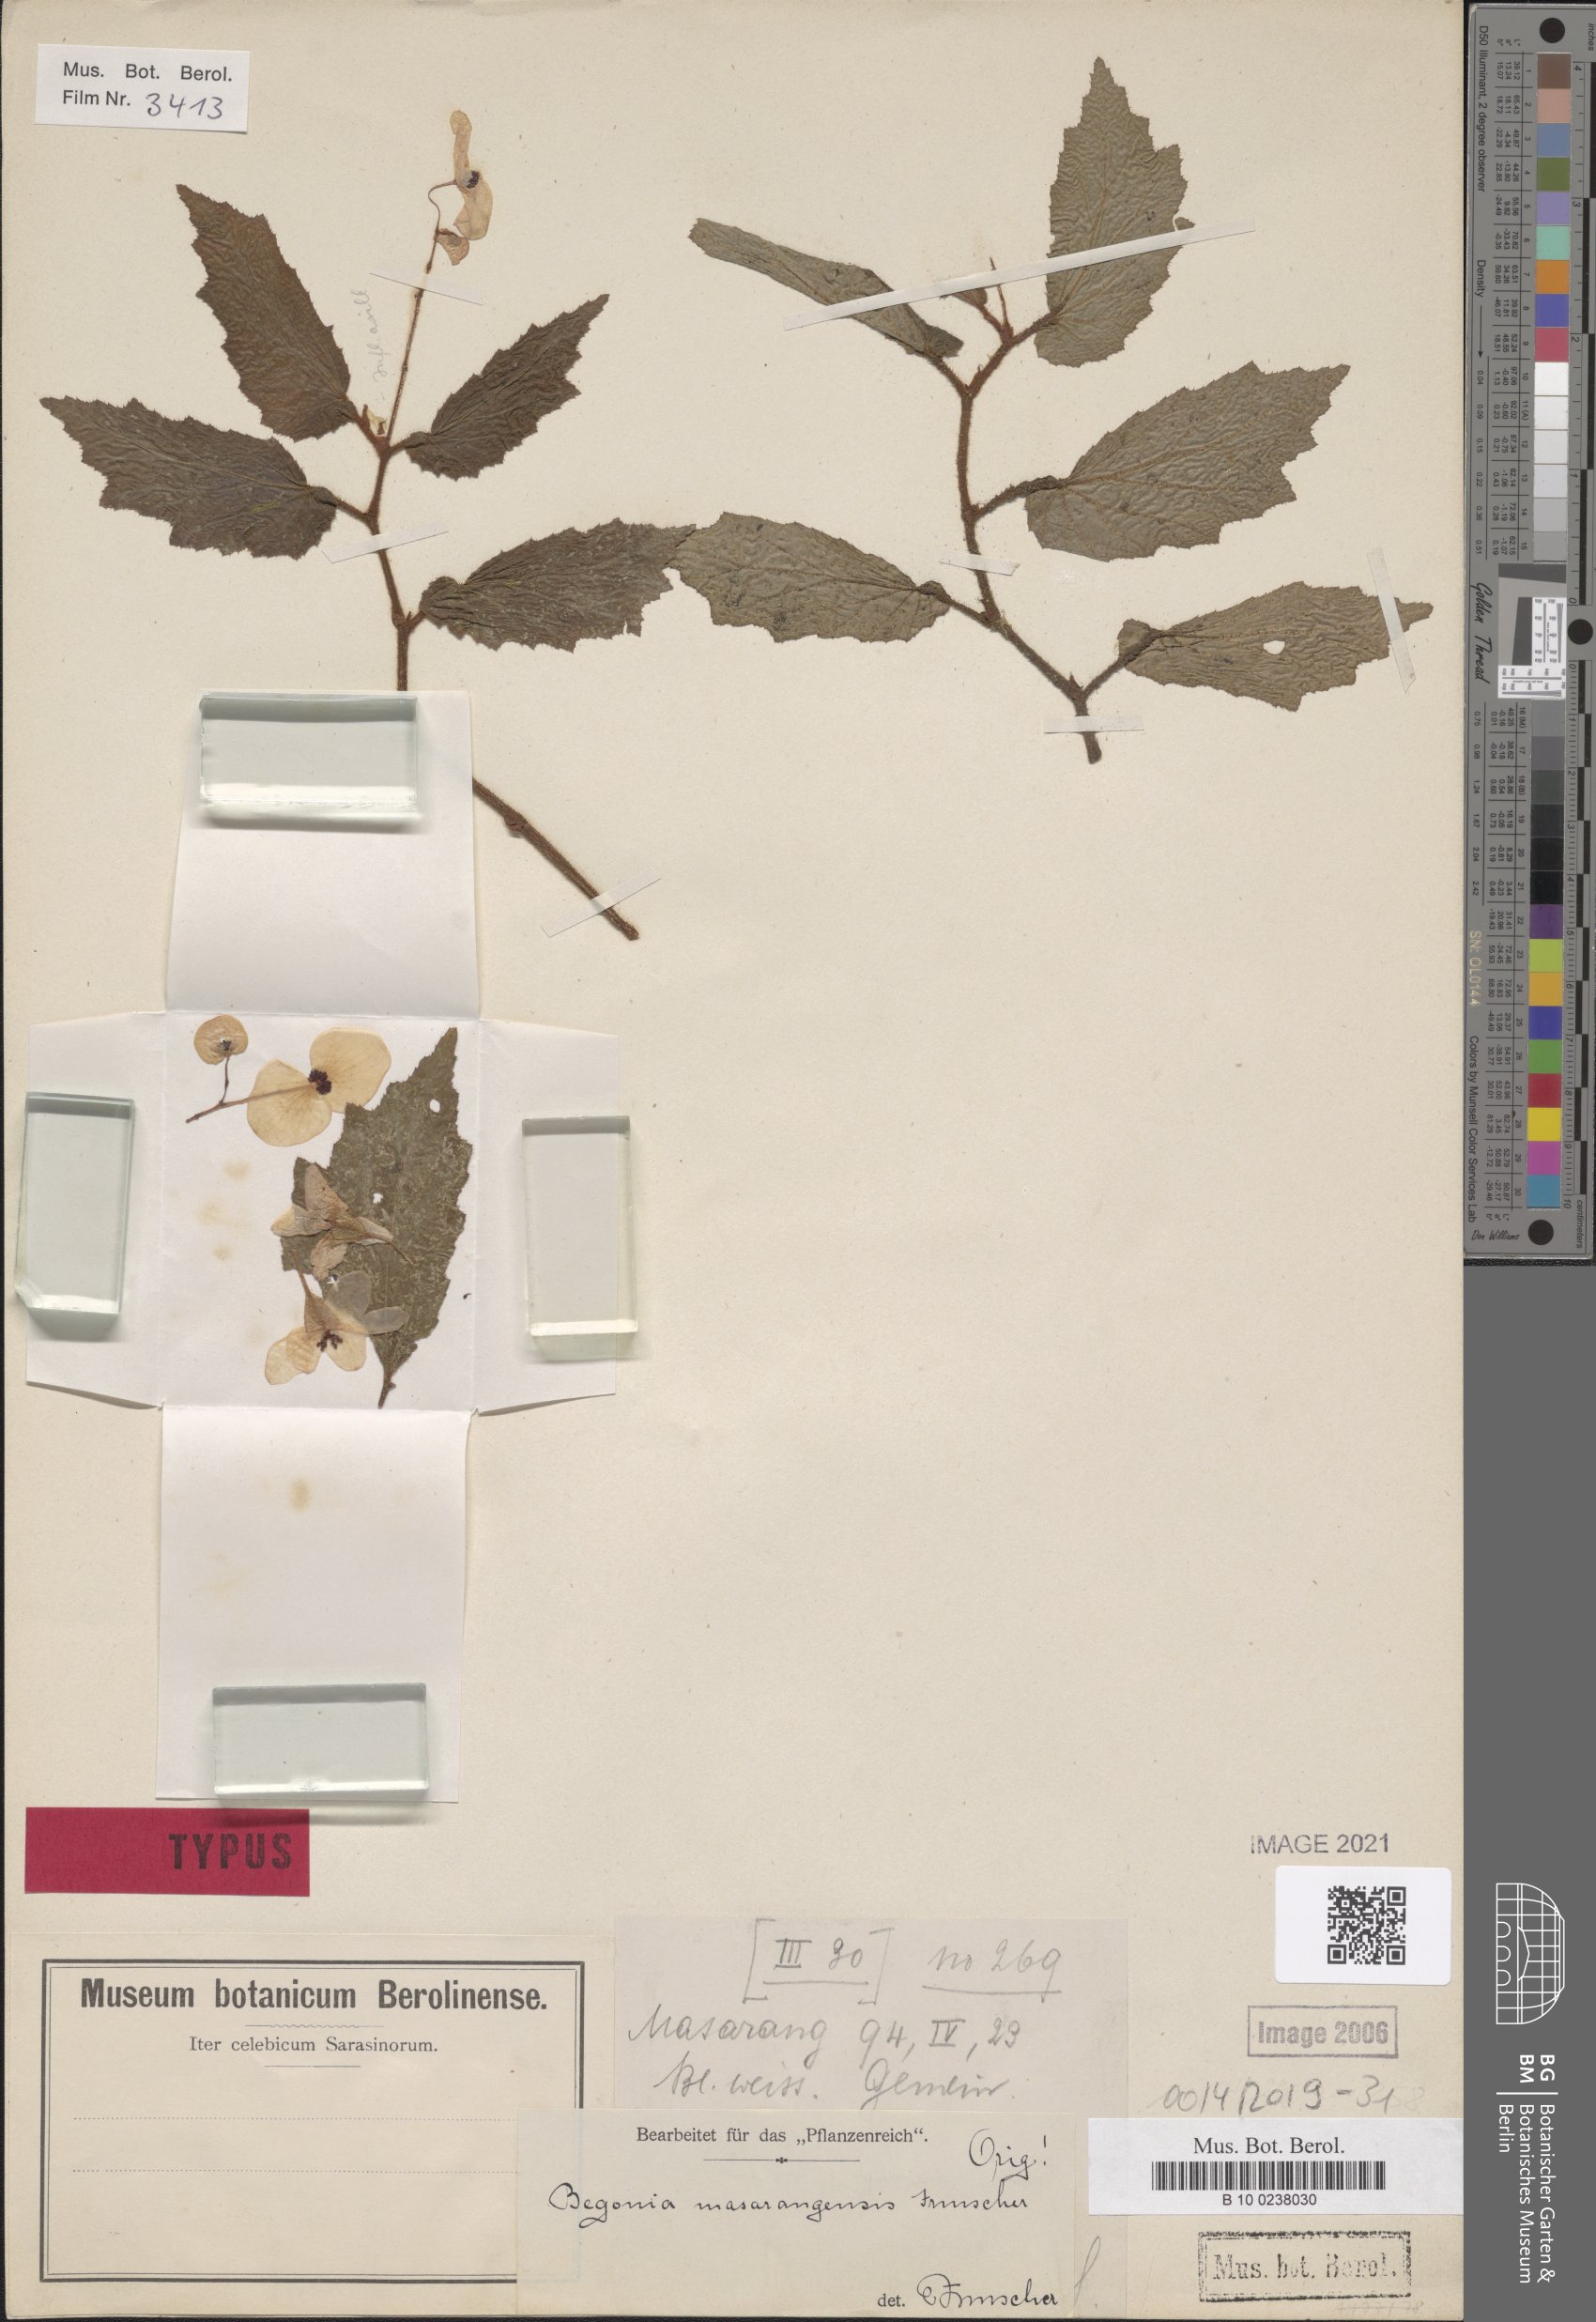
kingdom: Plantae
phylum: Tracheophyta
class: Magnoliopsida
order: Cucurbitales
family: Begoniaceae
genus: Begonia
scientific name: Begonia masarangensis
